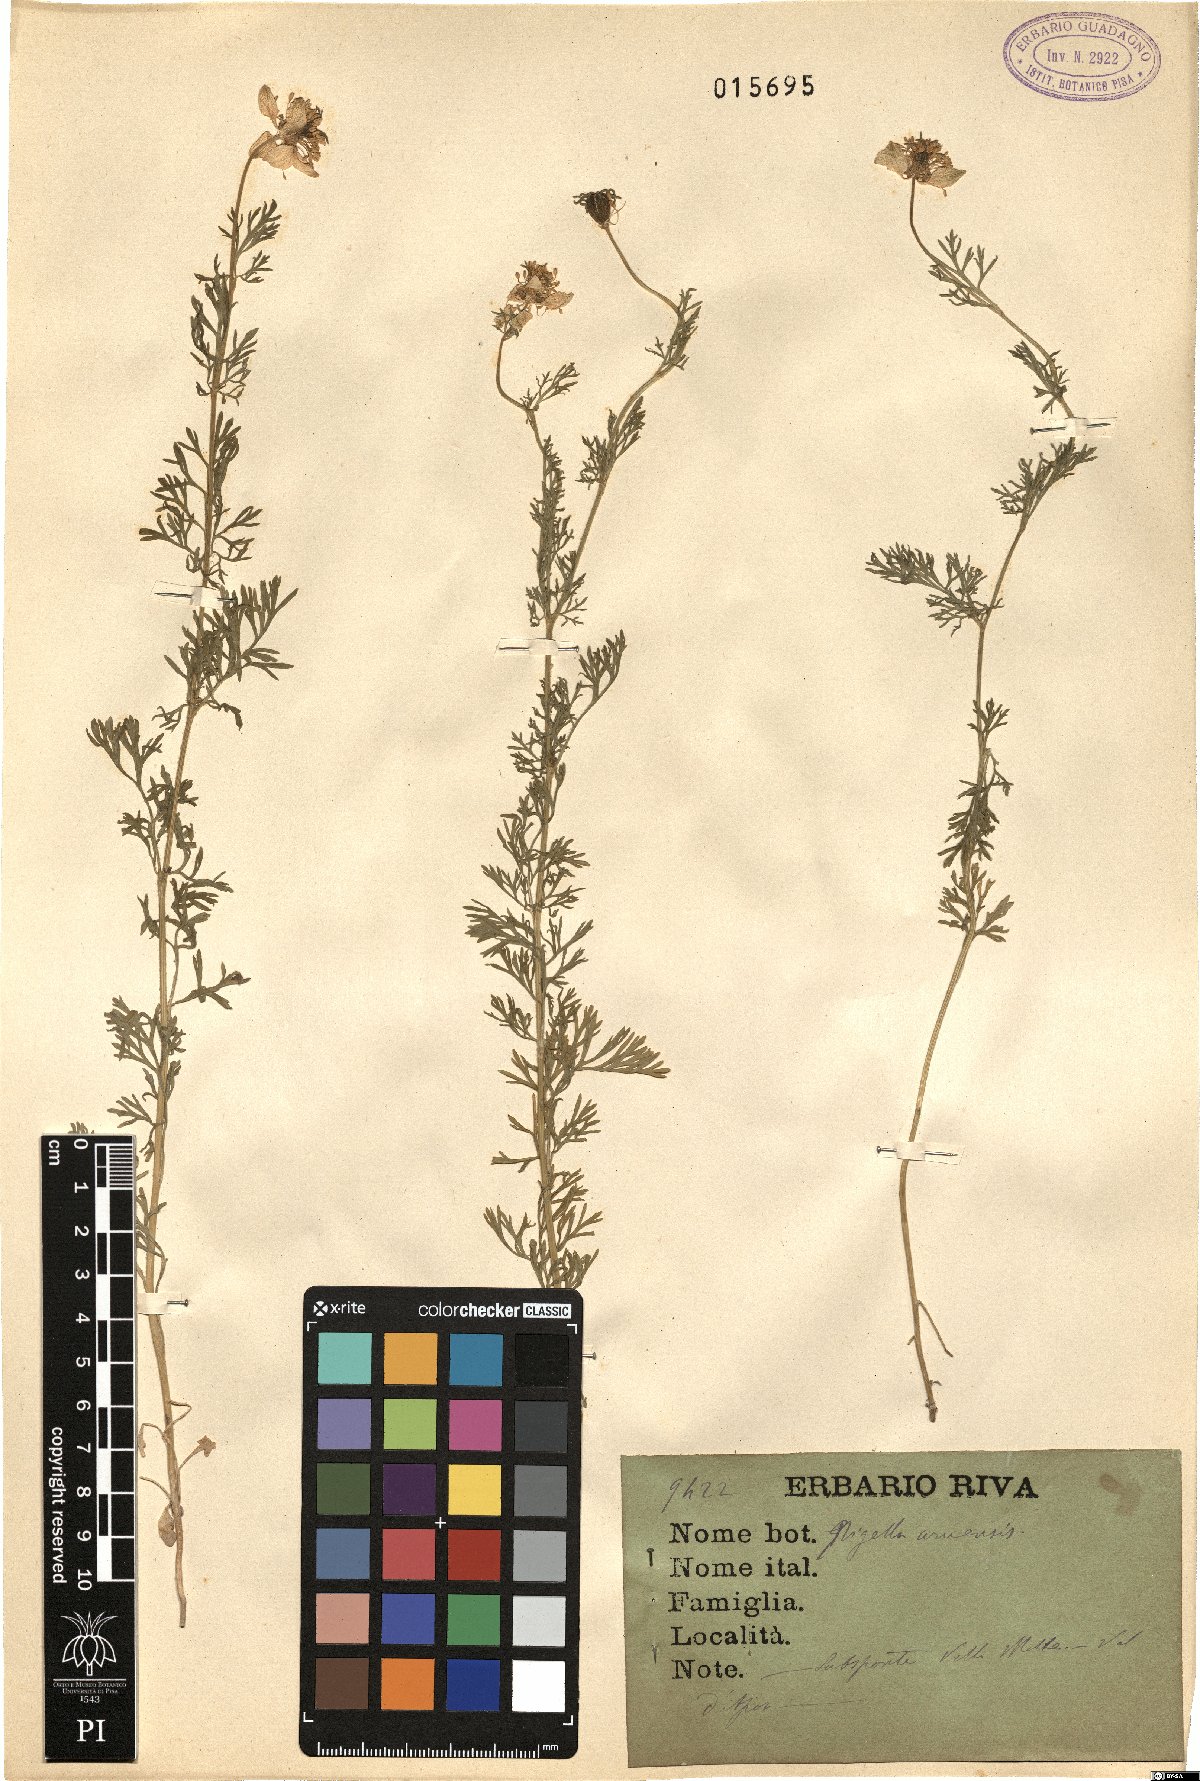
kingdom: Plantae
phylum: Tracheophyta
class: Magnoliopsida
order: Ranunculales
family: Ranunculaceae
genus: Nigella
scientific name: Nigella damascena
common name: Love-in-a-mist
